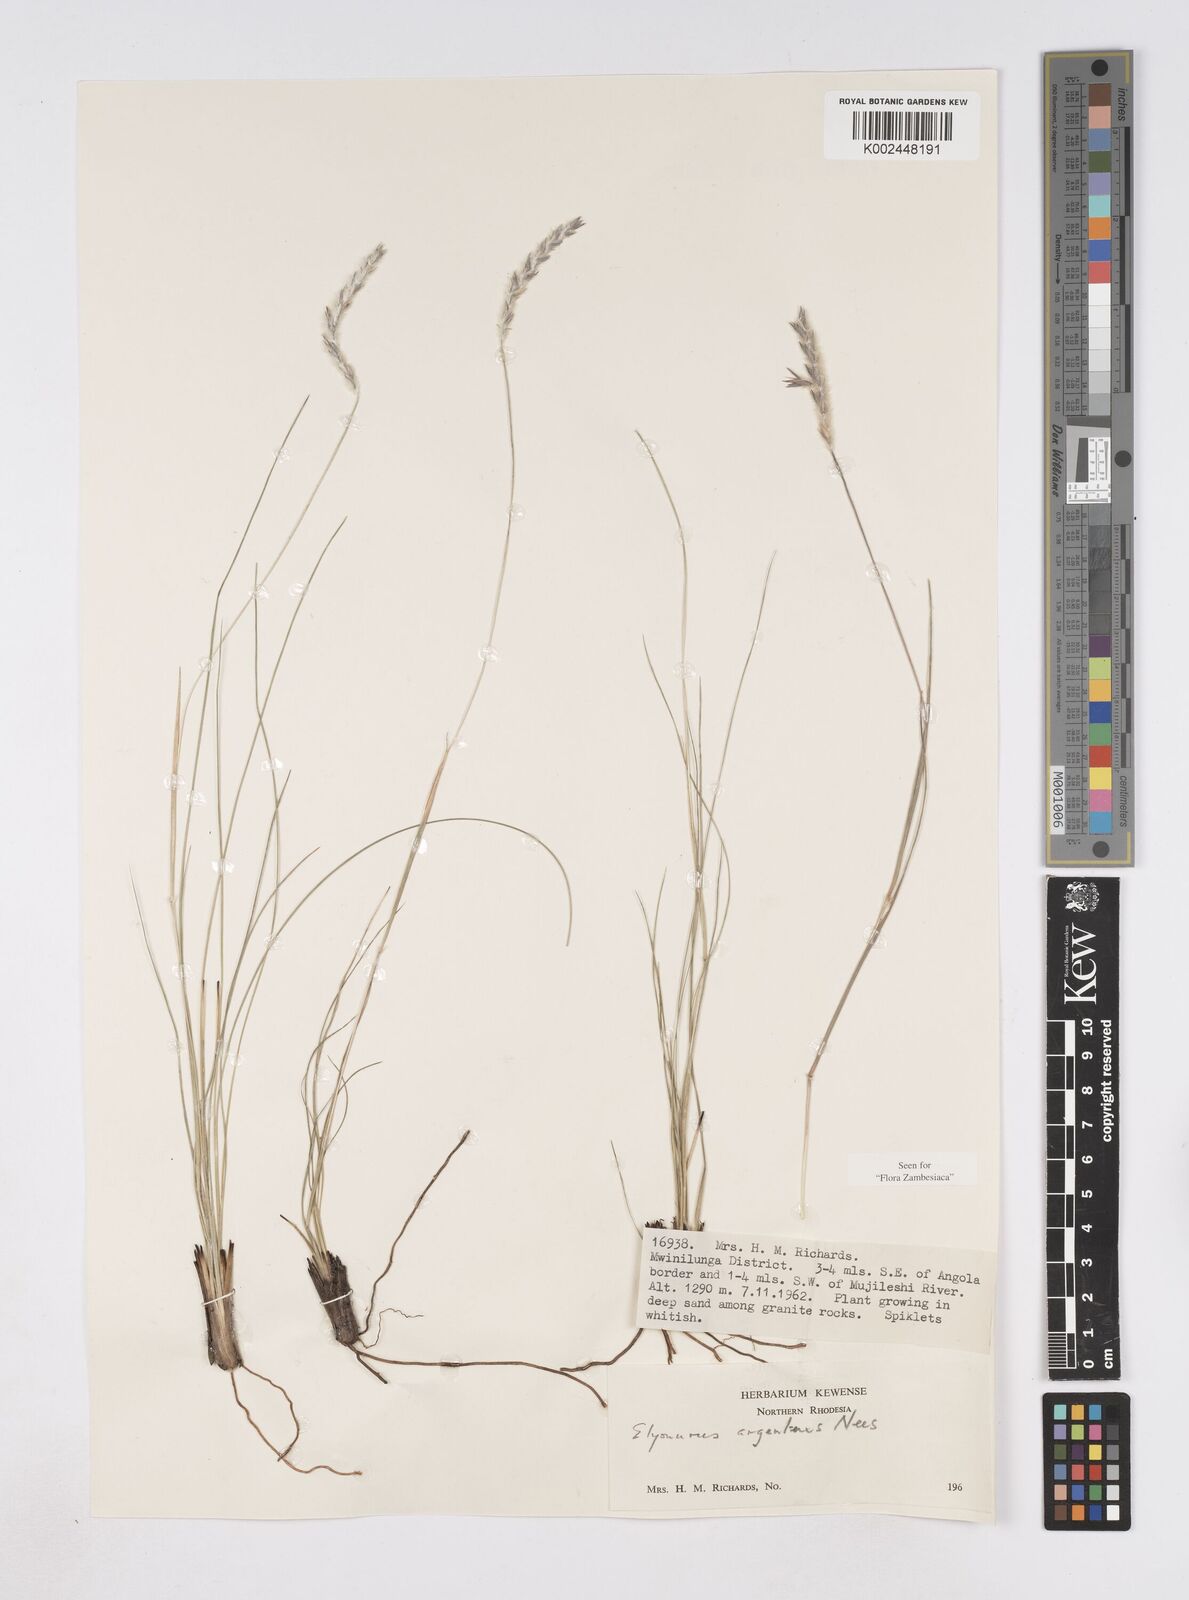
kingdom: Plantae
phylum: Tracheophyta
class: Liliopsida
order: Poales
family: Poaceae
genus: Elionurus
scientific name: Elionurus muticus
